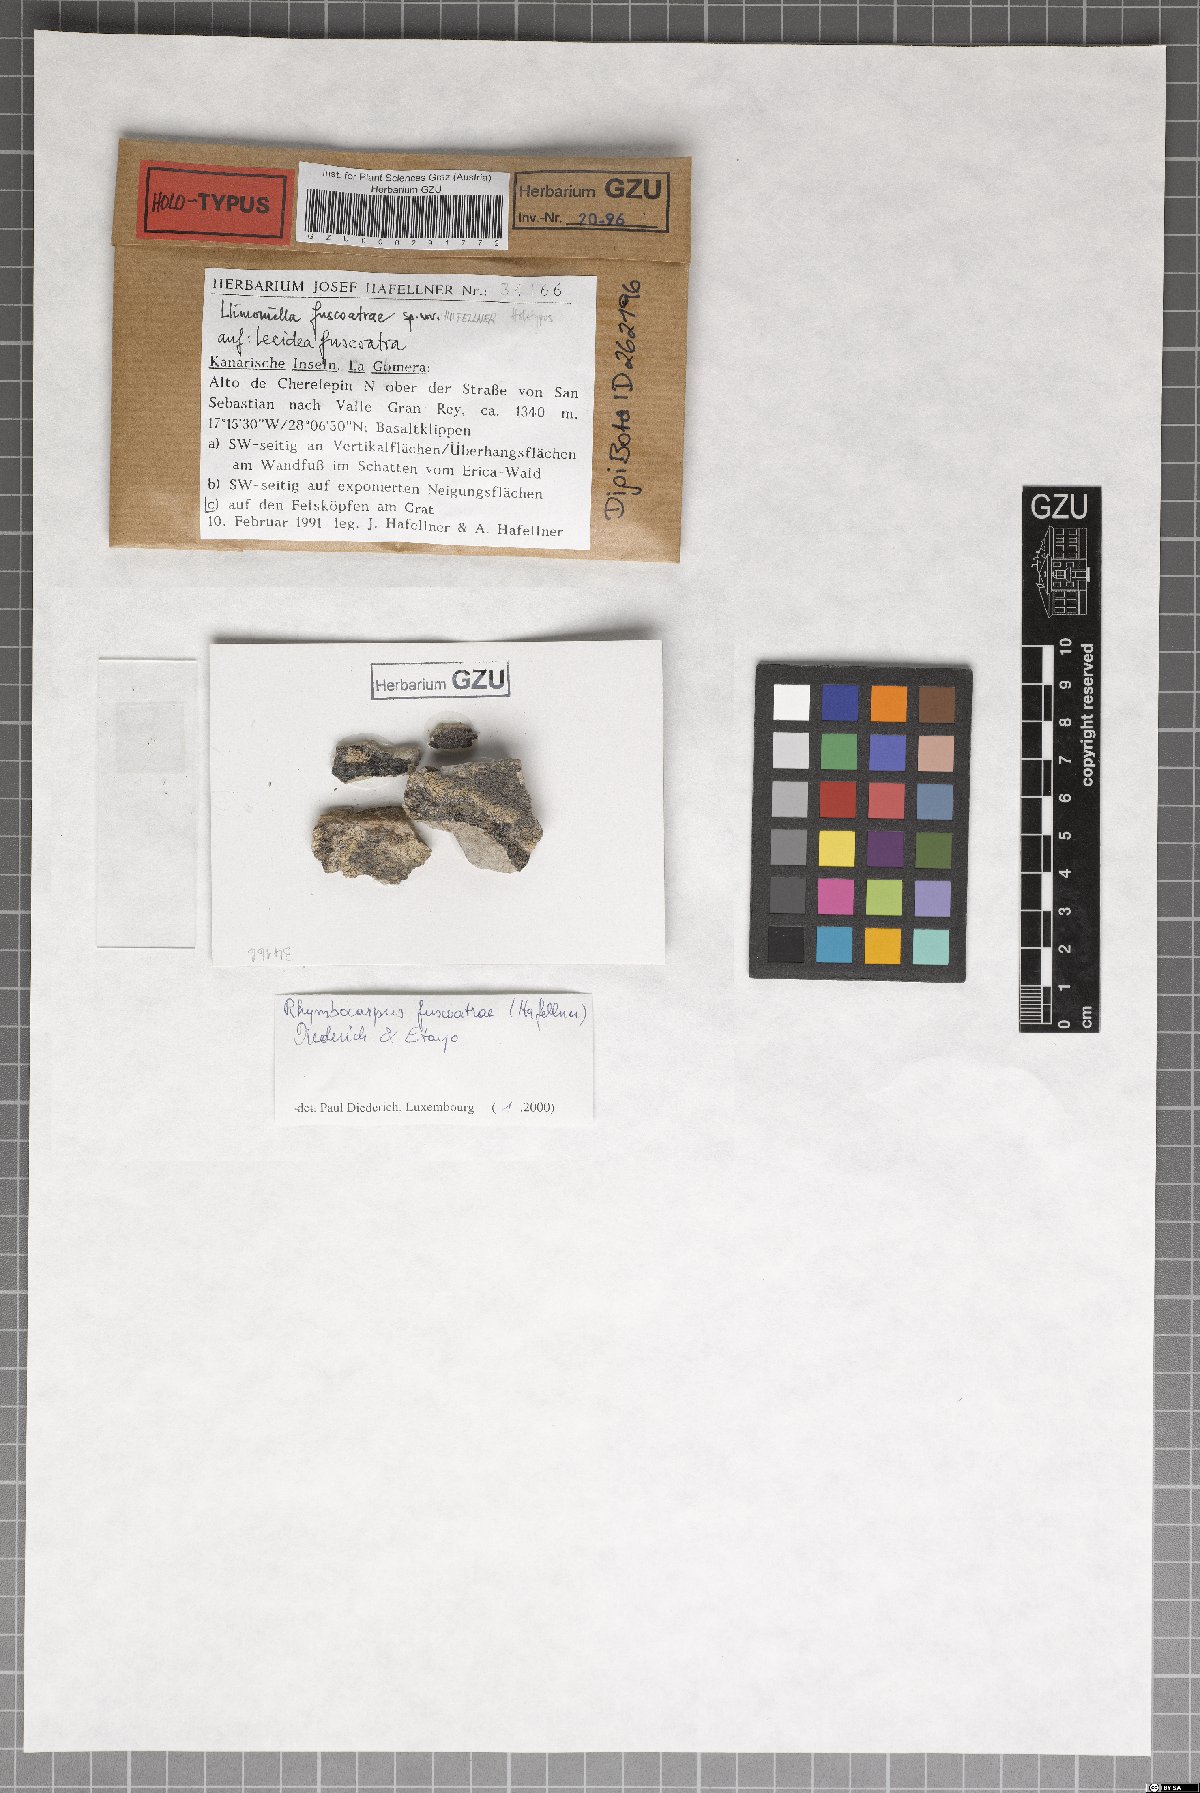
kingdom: Fungi
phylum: Ascomycota
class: Leotiomycetes
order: Helotiales
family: Cordieritidaceae
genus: Llimoniella
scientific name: Llimoniella fuscoatrae
